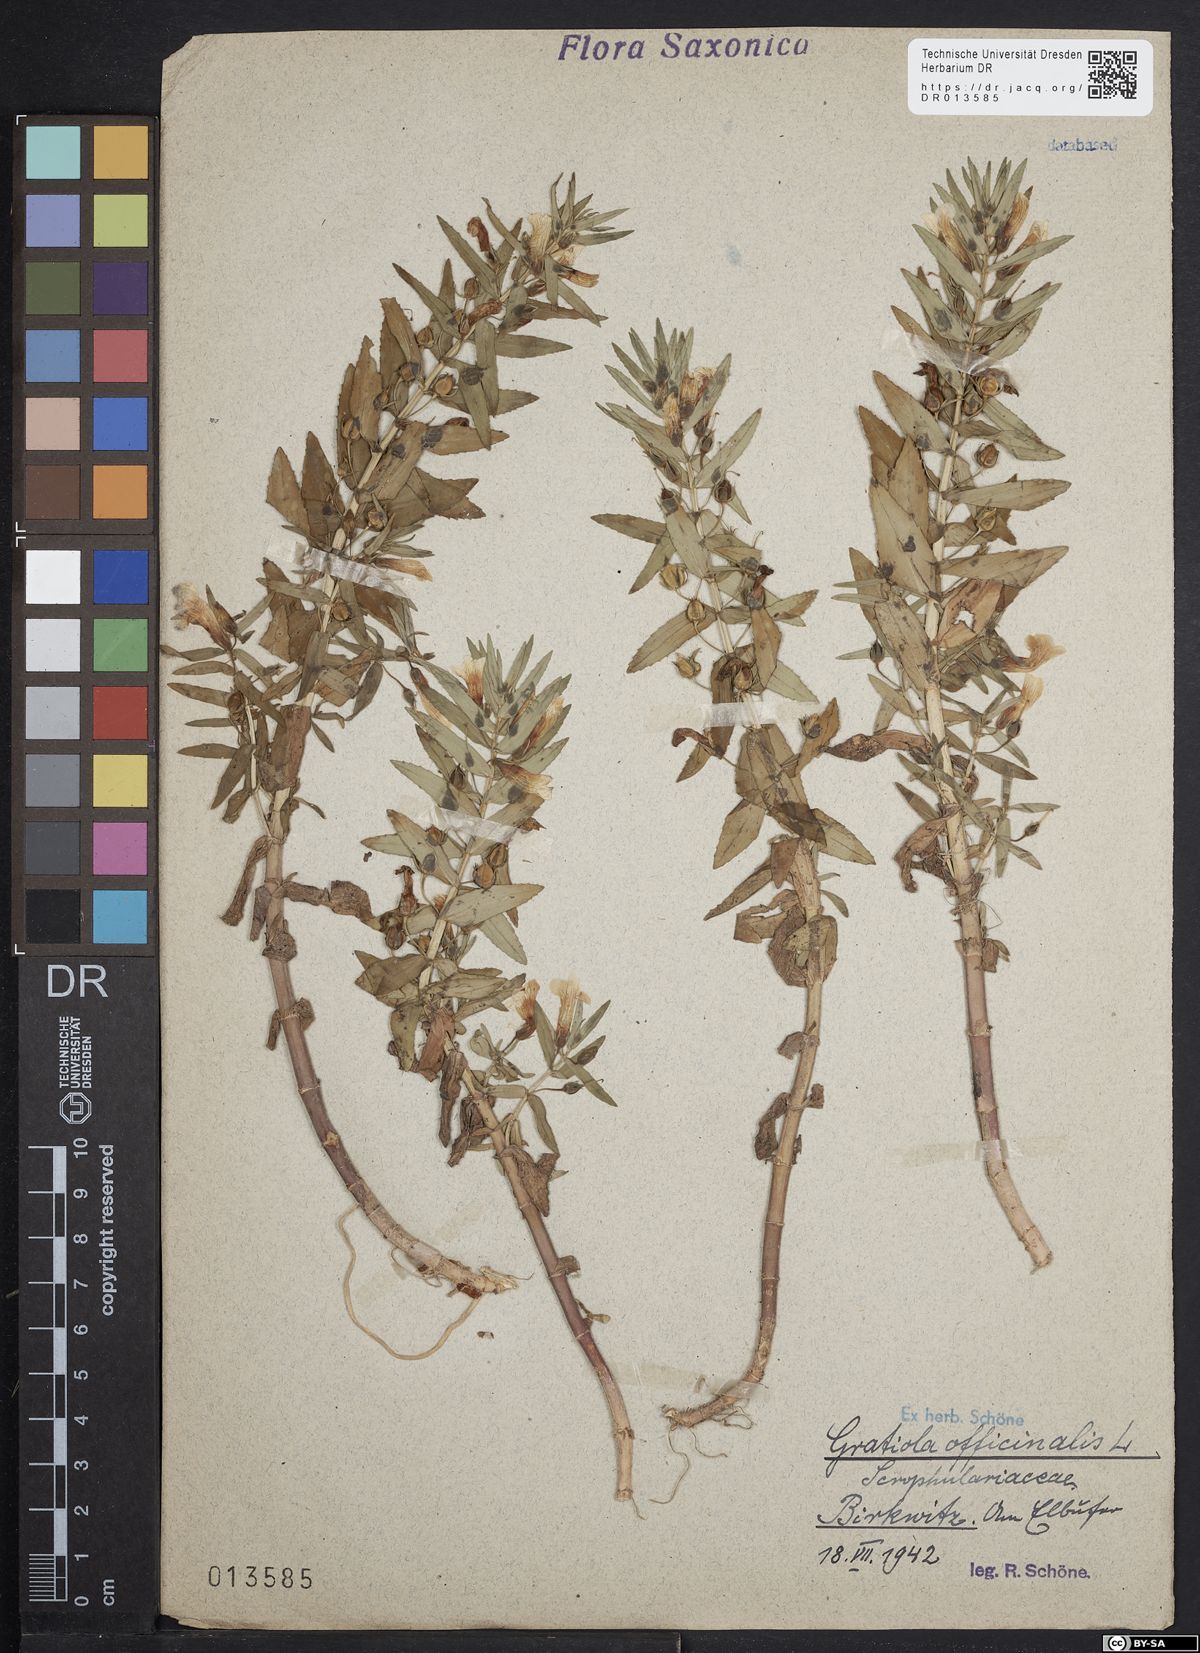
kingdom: Plantae
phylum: Tracheophyta
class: Magnoliopsida
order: Lamiales
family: Plantaginaceae
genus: Gratiola
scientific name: Gratiola officinalis
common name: Gratiola
